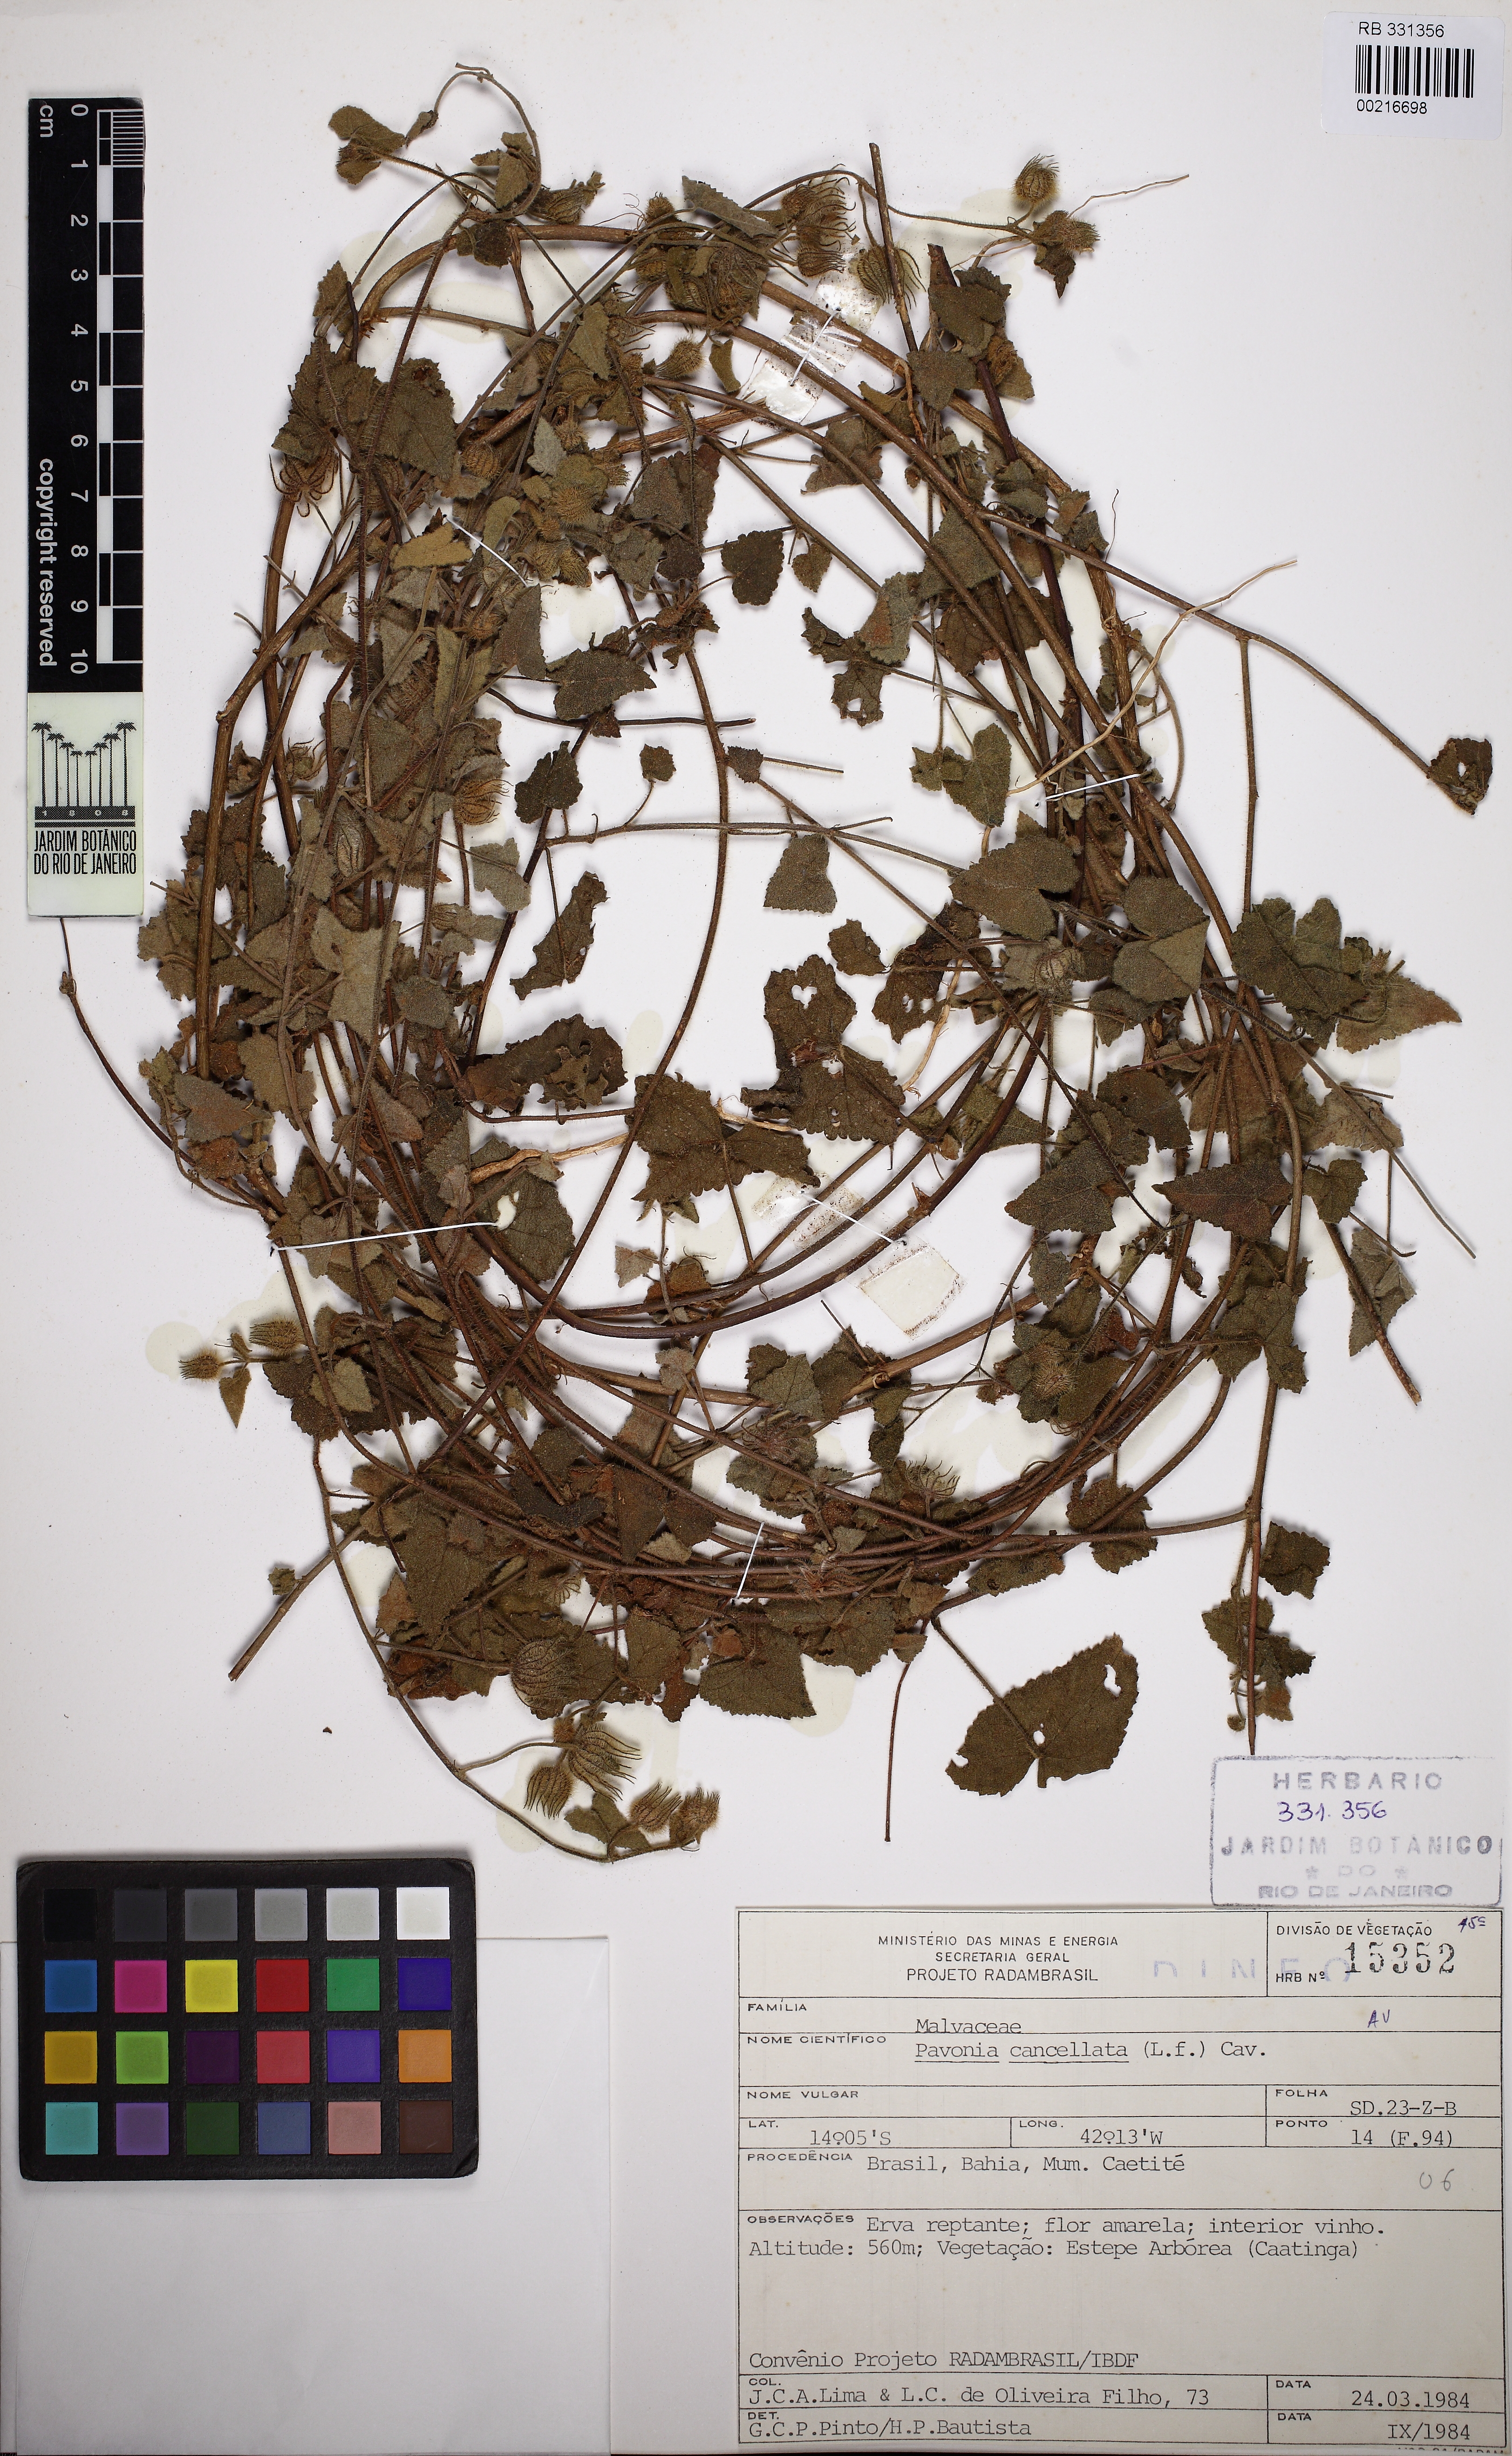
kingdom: Plantae
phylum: Tracheophyta
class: Magnoliopsida
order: Malvales
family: Malvaceae
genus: Pavonia
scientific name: Pavonia cancellata
